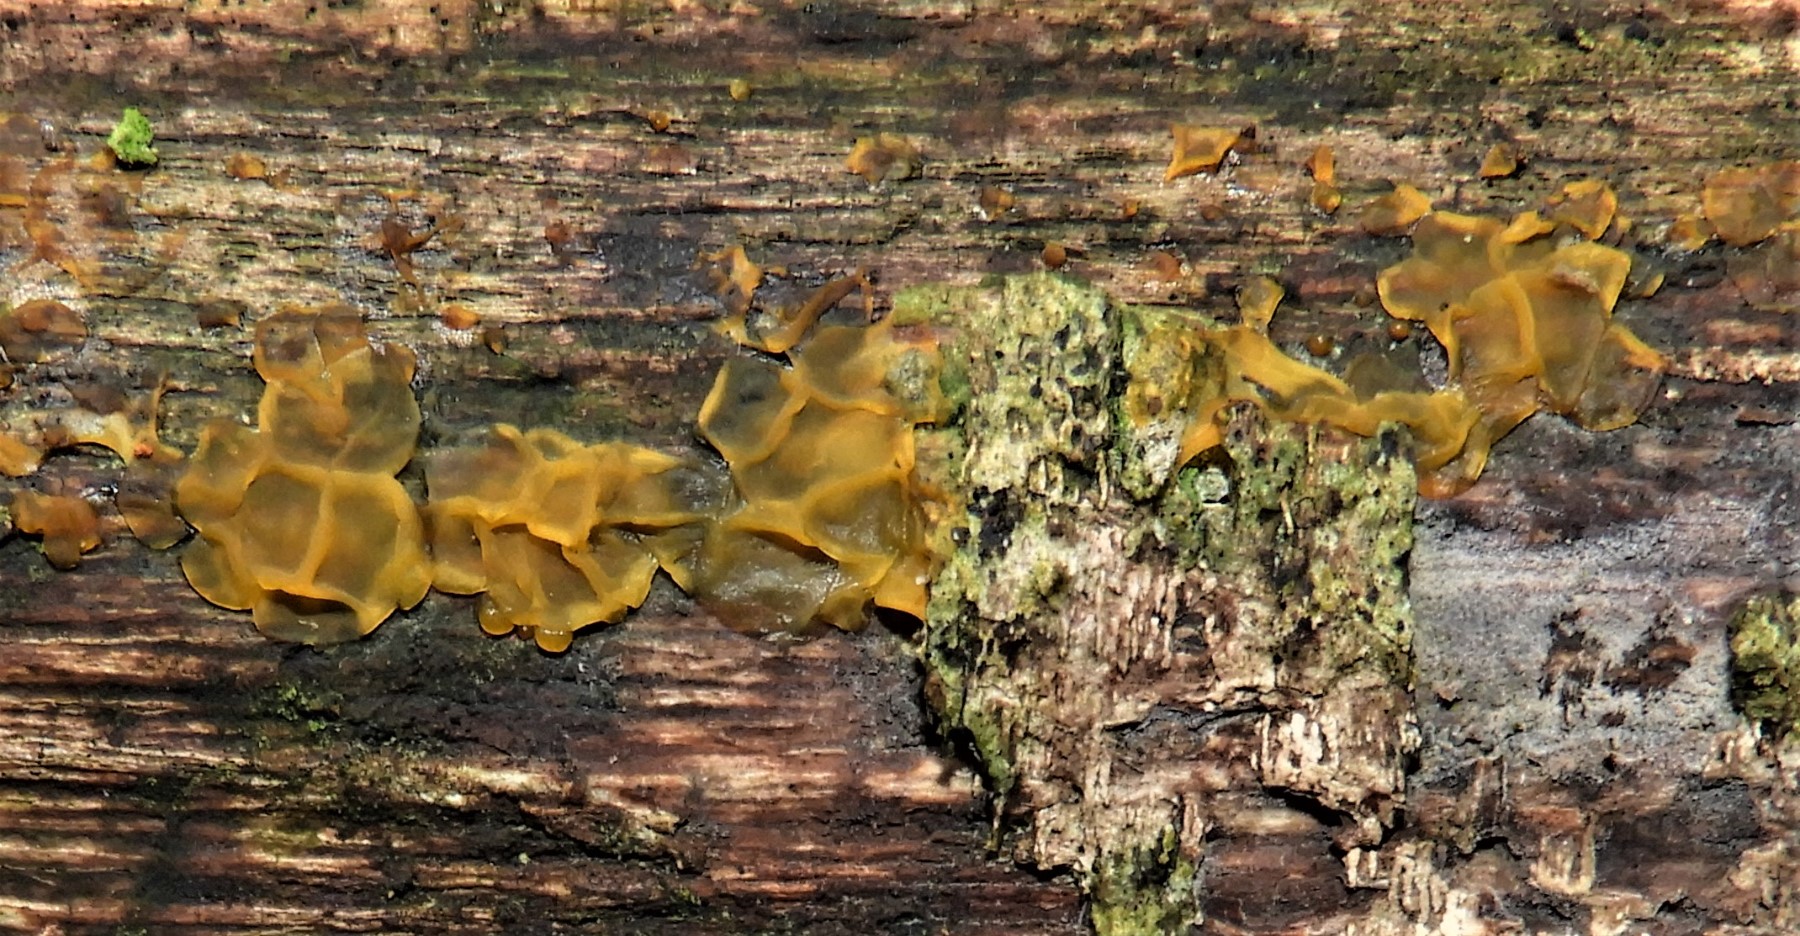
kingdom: Fungi
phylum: Basidiomycota
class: Dacrymycetes
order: Dacrymycetales
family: Dacrymycetaceae
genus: Dacrymyces
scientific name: Dacrymyces lacrymalis
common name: rynket tåresvamp
